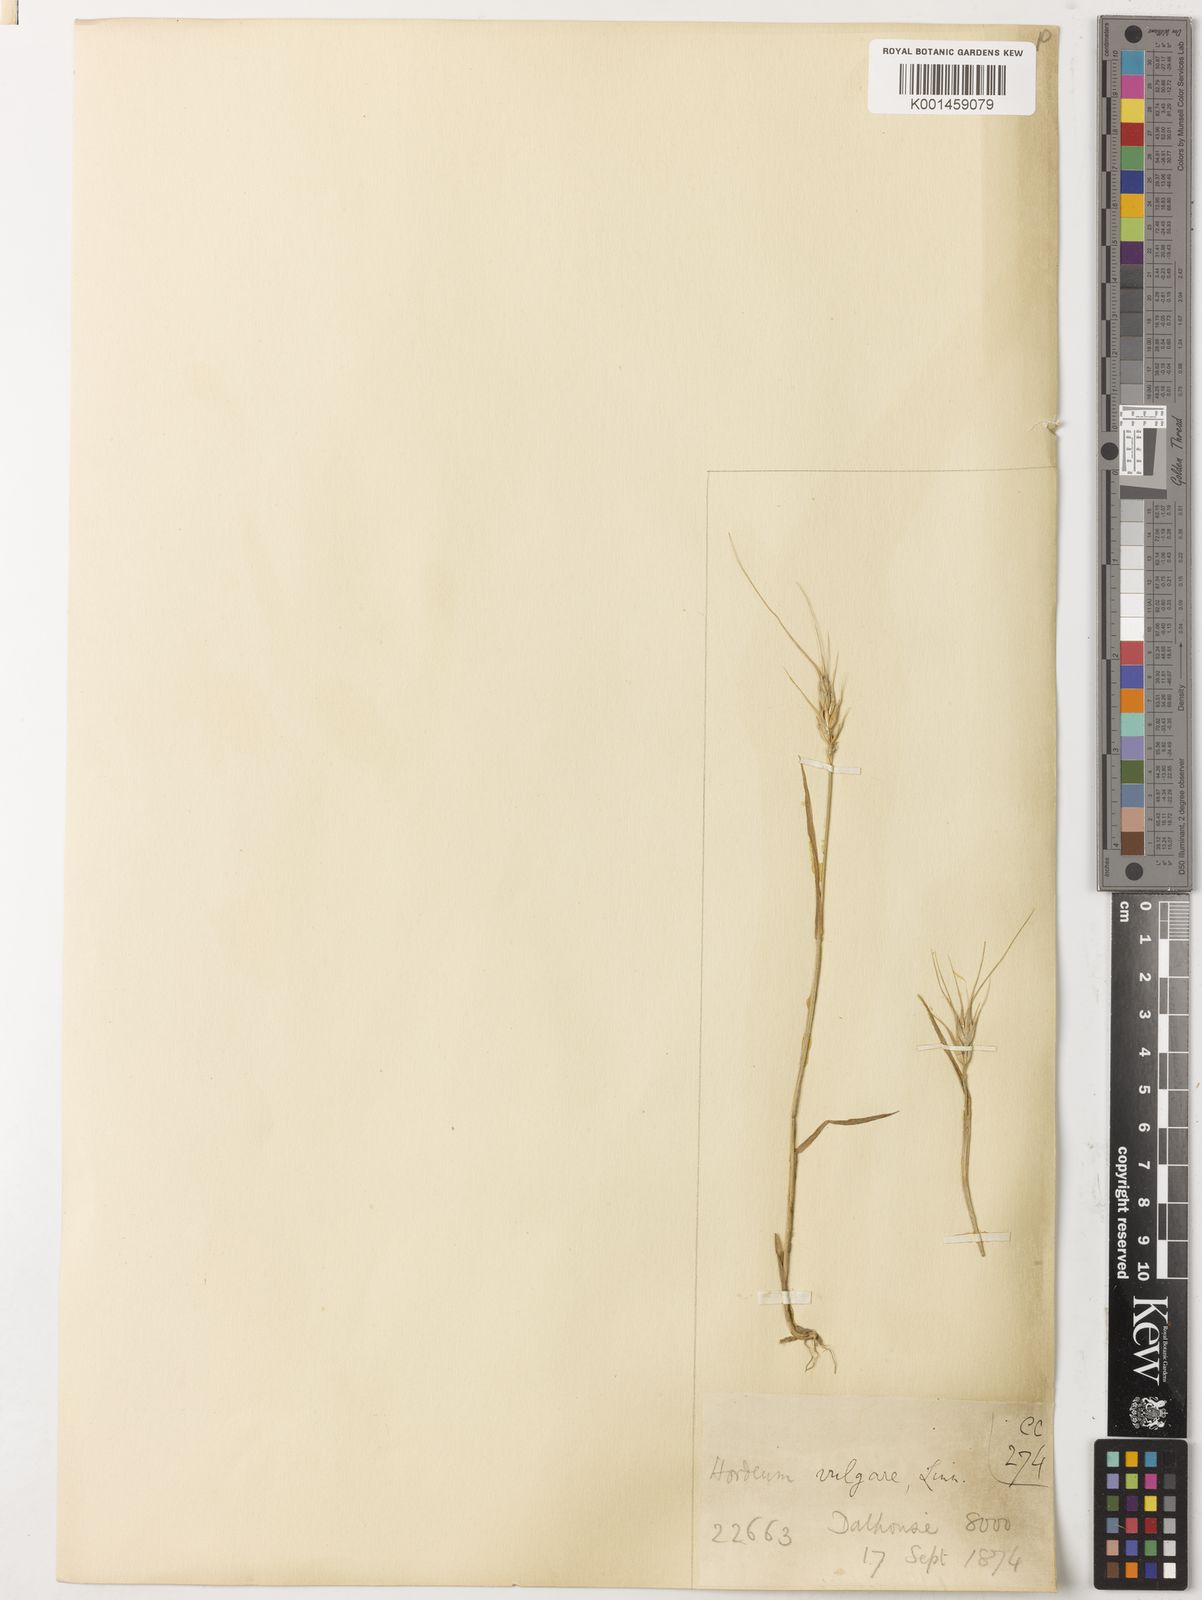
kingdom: Plantae
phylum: Tracheophyta
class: Liliopsida
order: Poales
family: Poaceae
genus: Hordeum
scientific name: Hordeum vulgare
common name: Common barley
